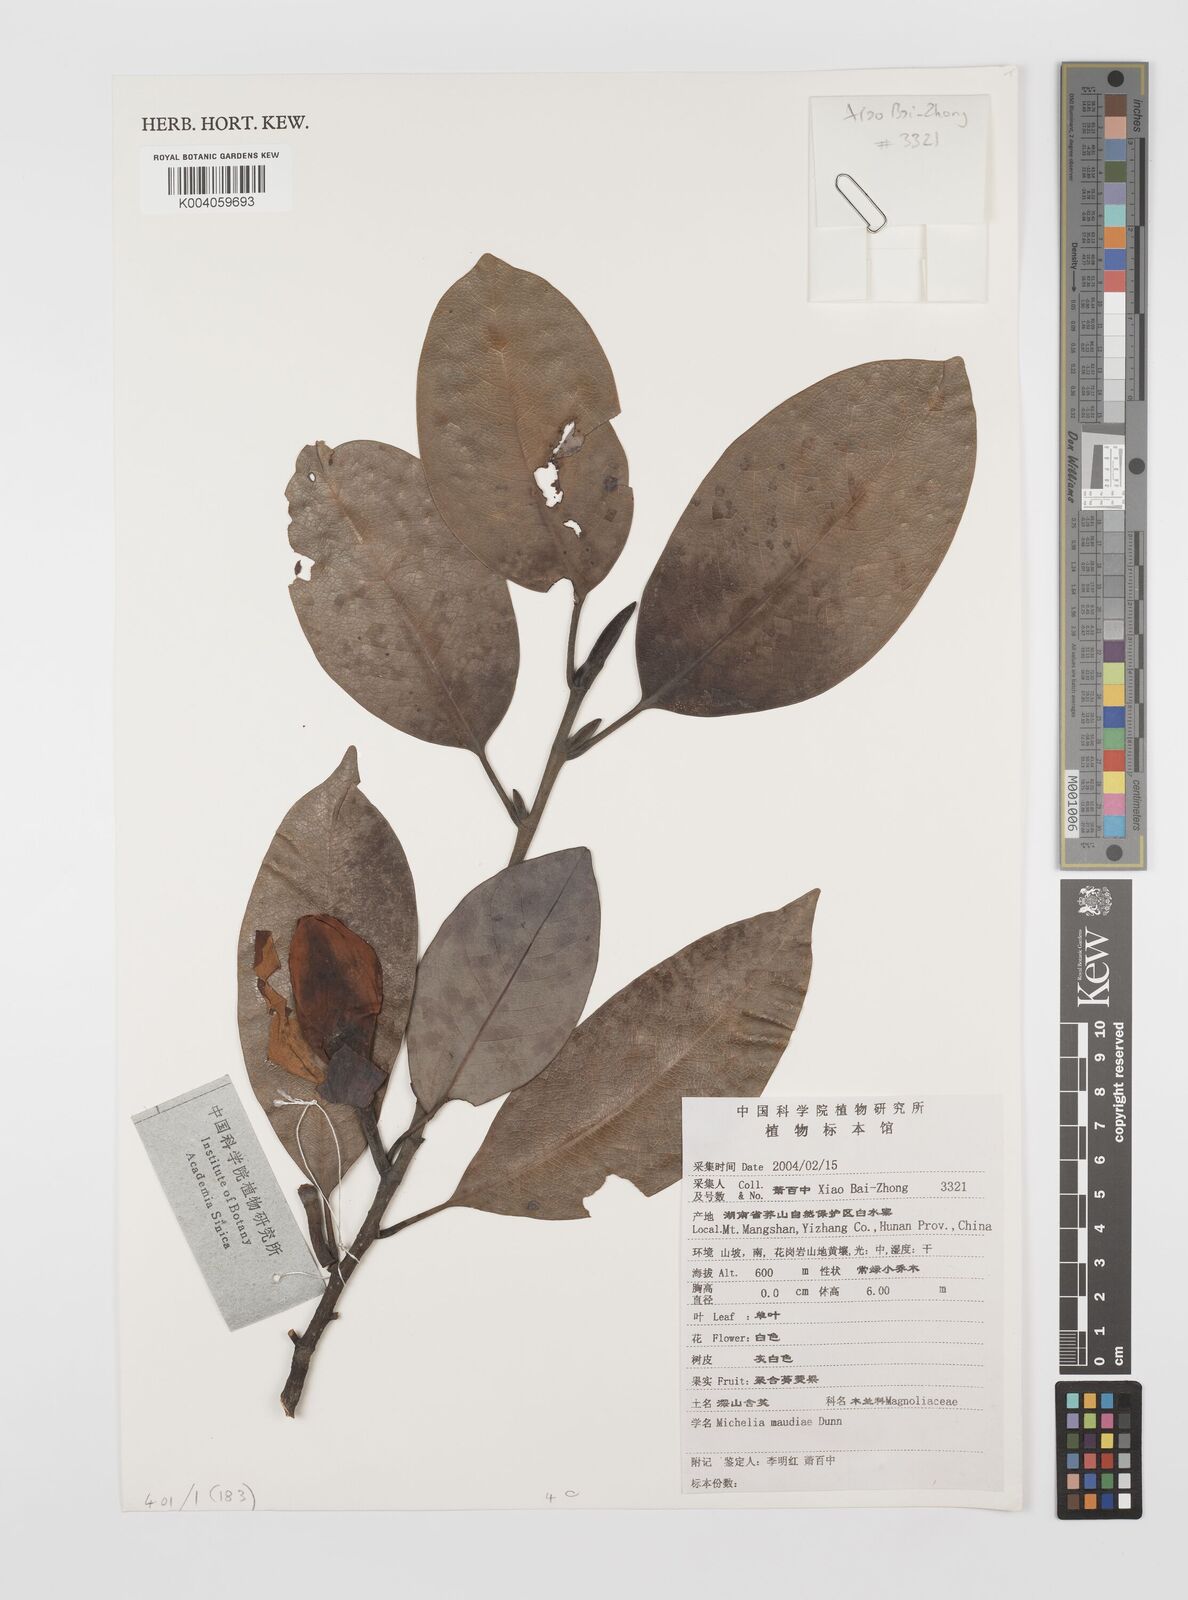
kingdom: Plantae
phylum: Tracheophyta
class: Magnoliopsida
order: Magnoliales
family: Magnoliaceae
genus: Magnolia
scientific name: Magnolia maudiae
